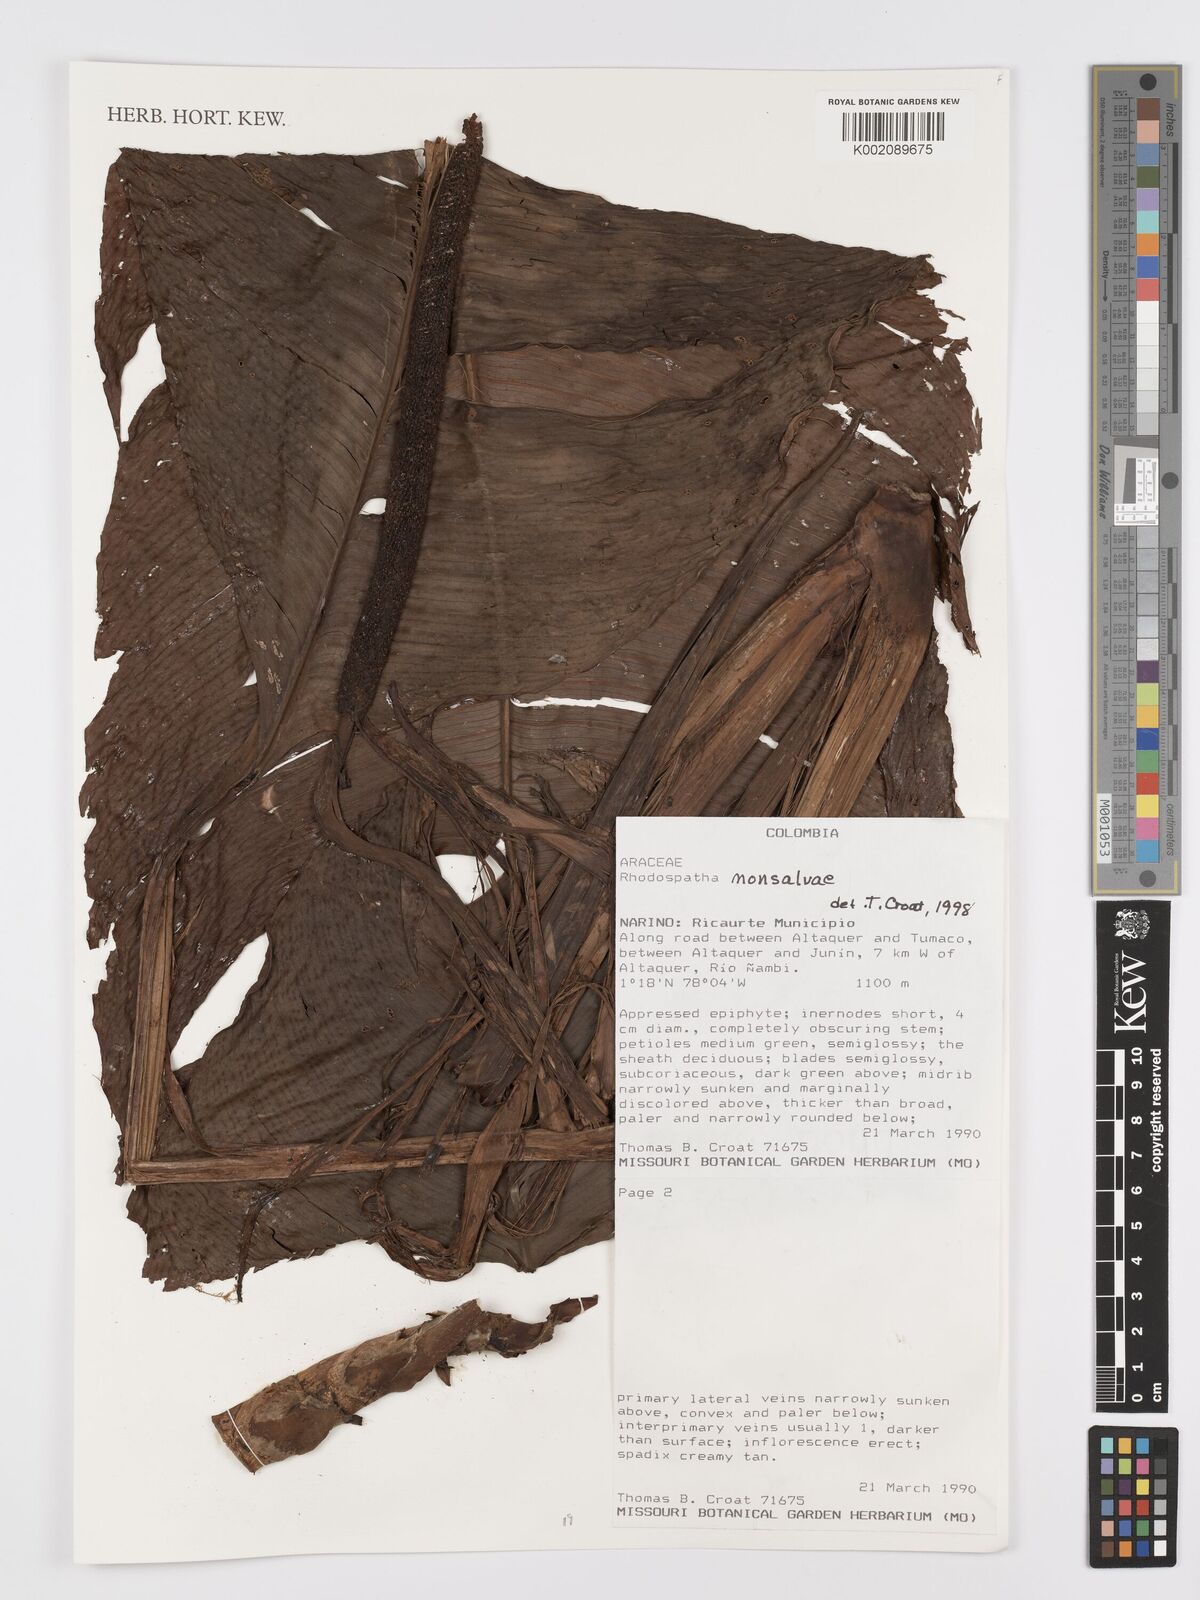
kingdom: Plantae
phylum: Tracheophyta
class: Liliopsida
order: Alismatales
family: Araceae
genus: Rhodospatha
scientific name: Rhodospatha monsalveae
